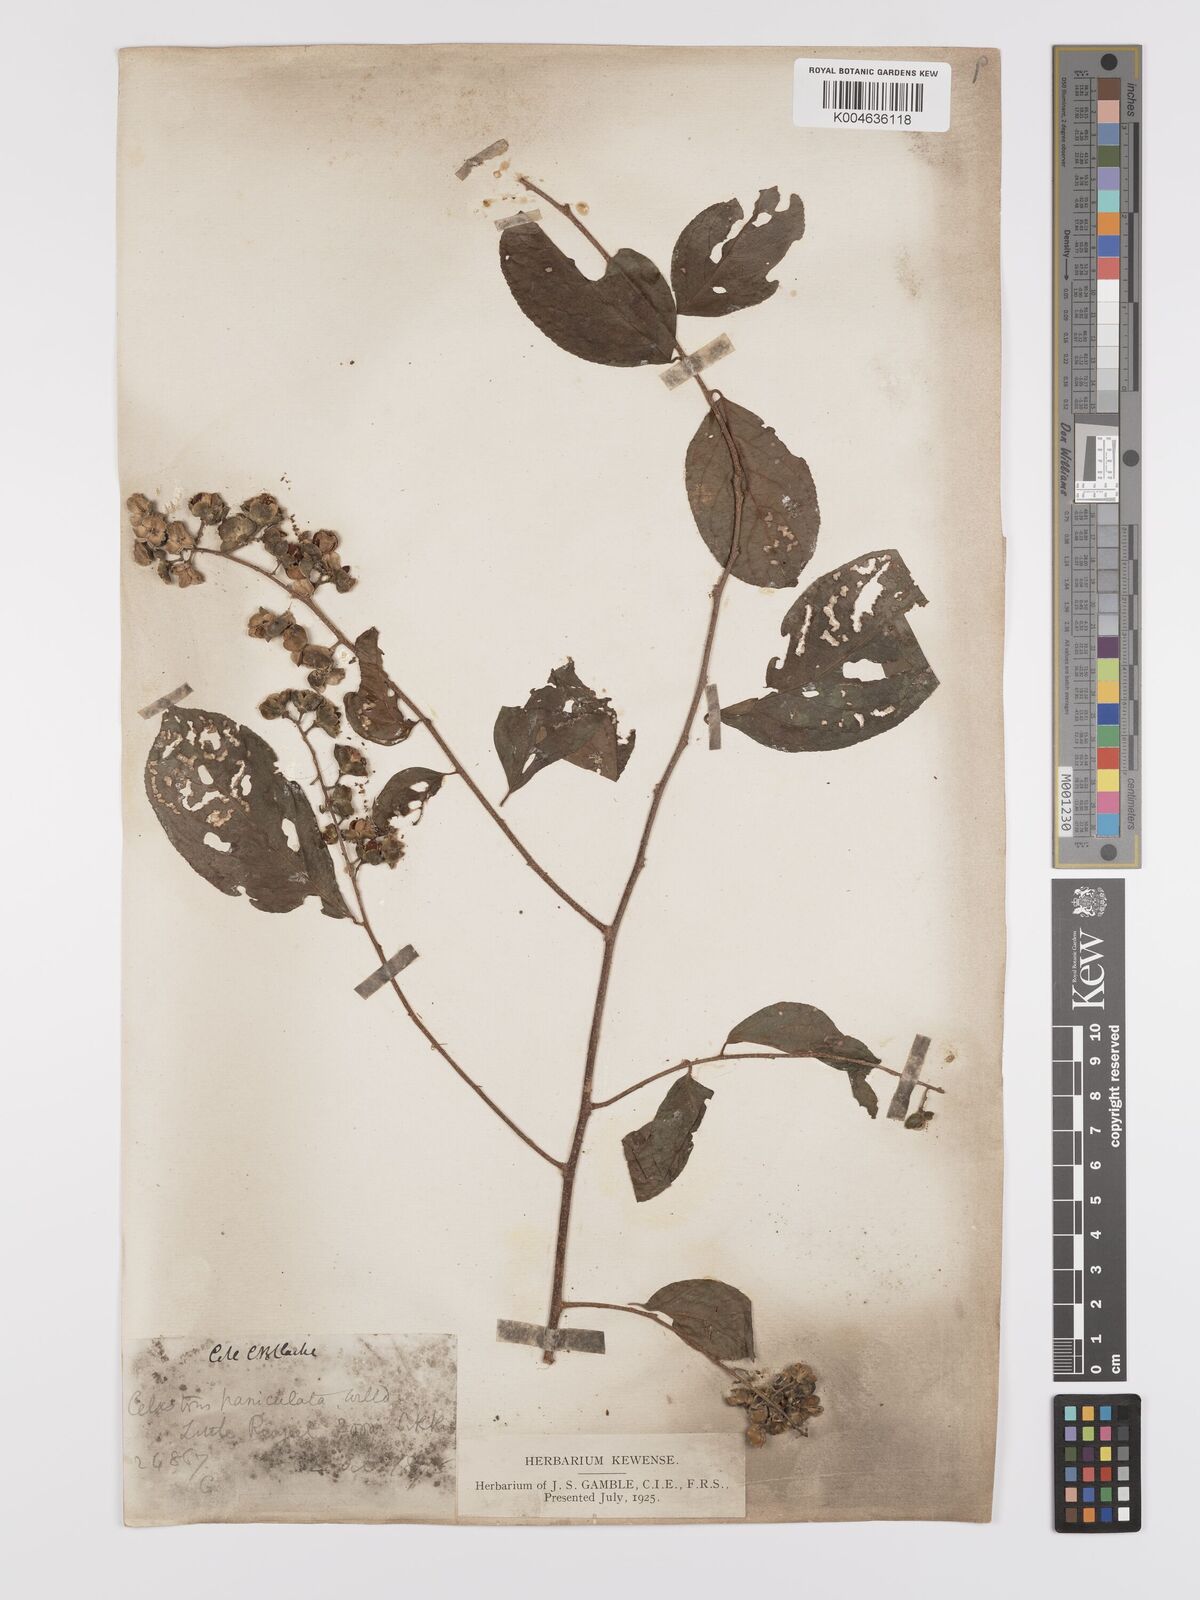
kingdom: Plantae
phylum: Tracheophyta
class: Magnoliopsida
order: Celastrales
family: Celastraceae
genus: Celastrus
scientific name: Celastrus paniculatus
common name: Oriental bittersweet; staff vine
